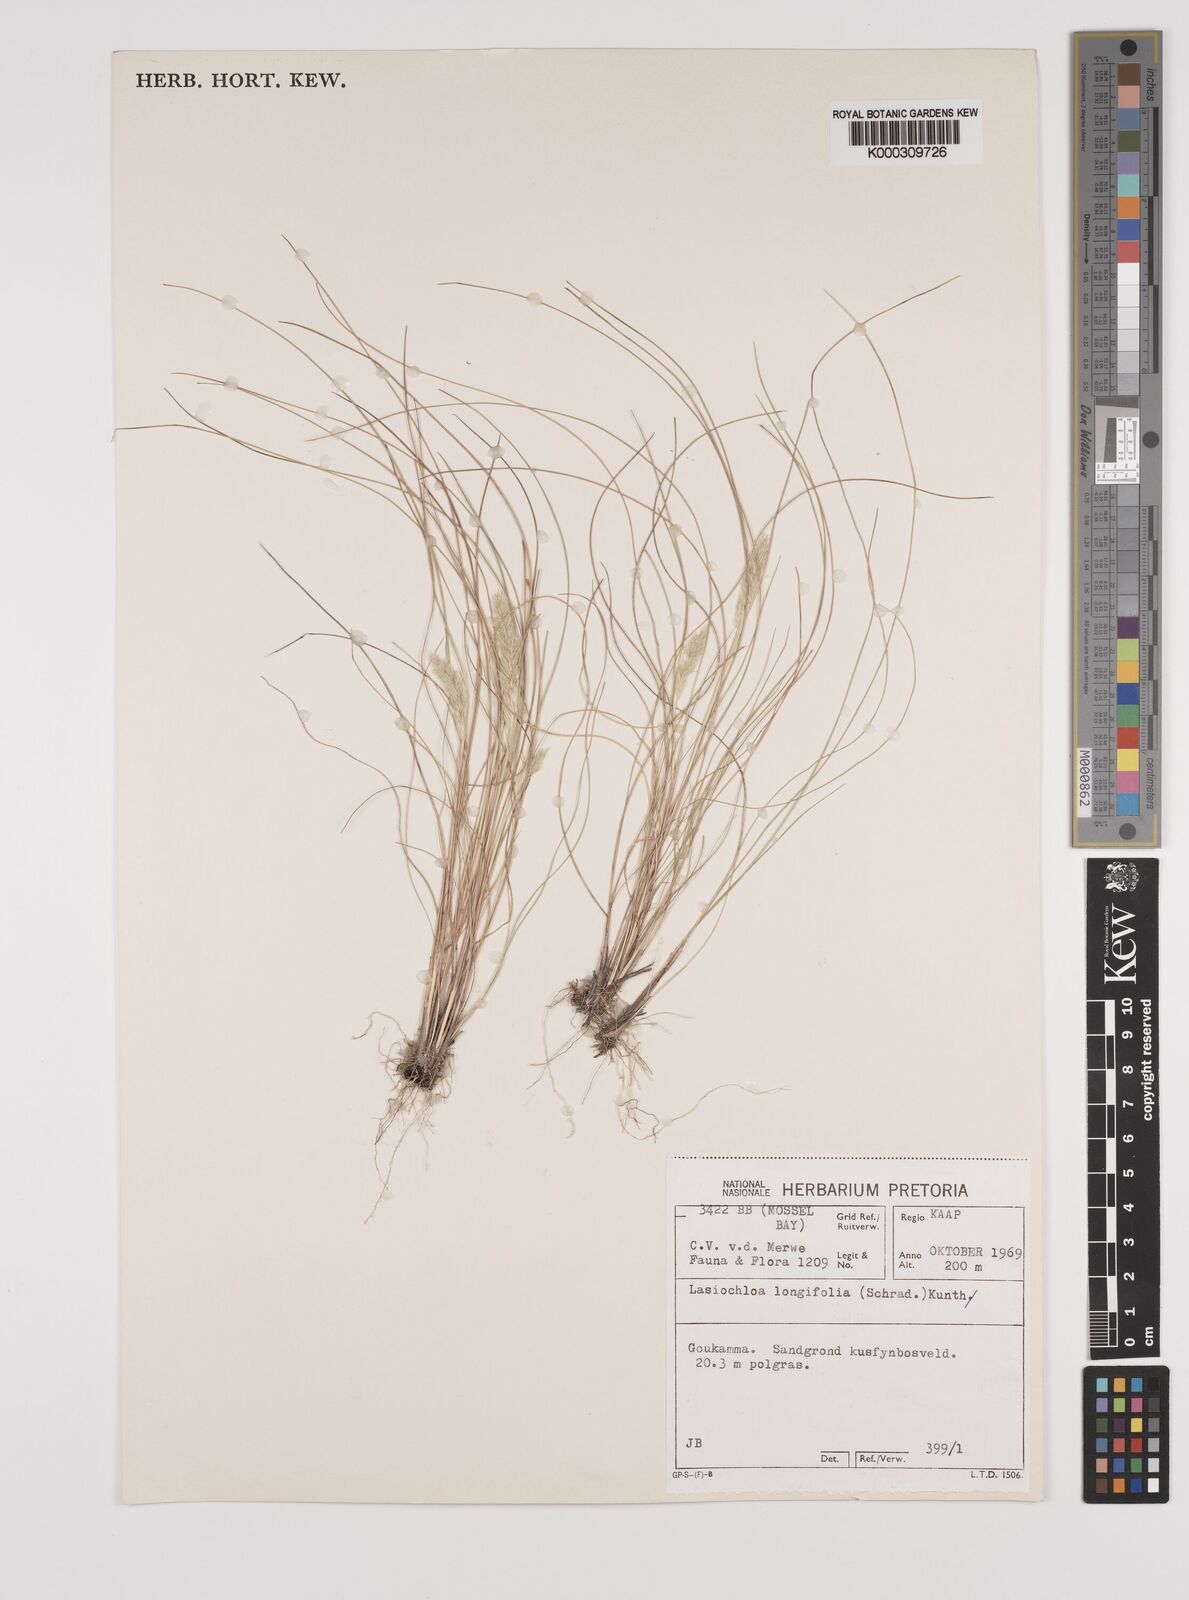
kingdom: Plantae
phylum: Tracheophyta
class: Liliopsida
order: Poales
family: Poaceae
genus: Tribolium
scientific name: Tribolium hispidum
